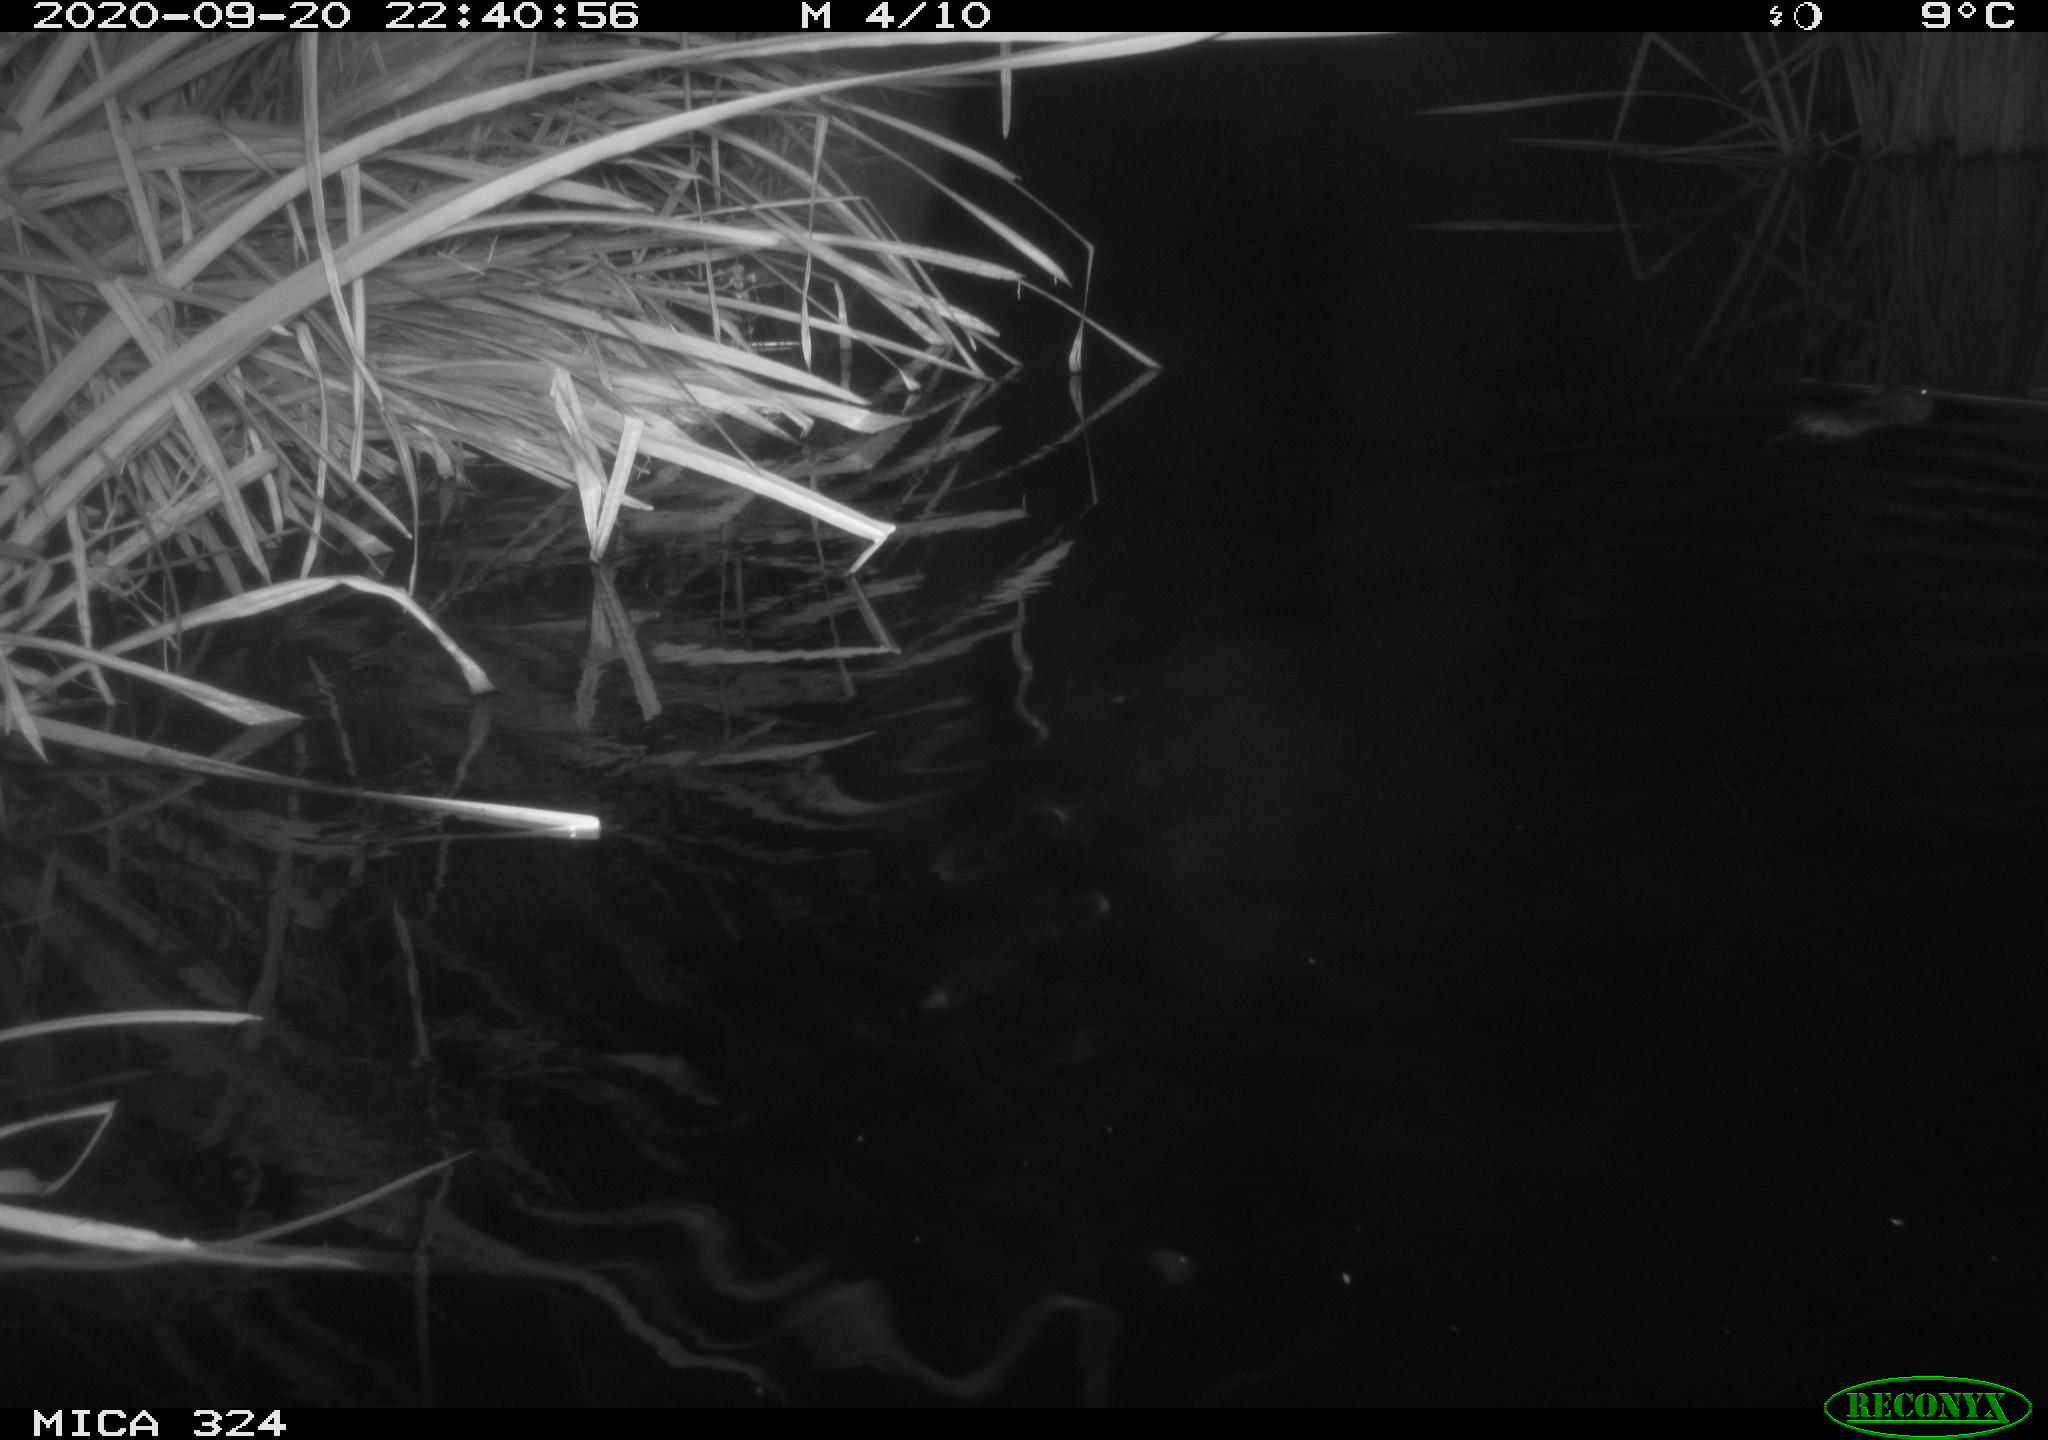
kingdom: Animalia
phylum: Chordata
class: Mammalia
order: Rodentia
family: Myocastoridae
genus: Myocastor
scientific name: Myocastor coypus
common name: Coypu
